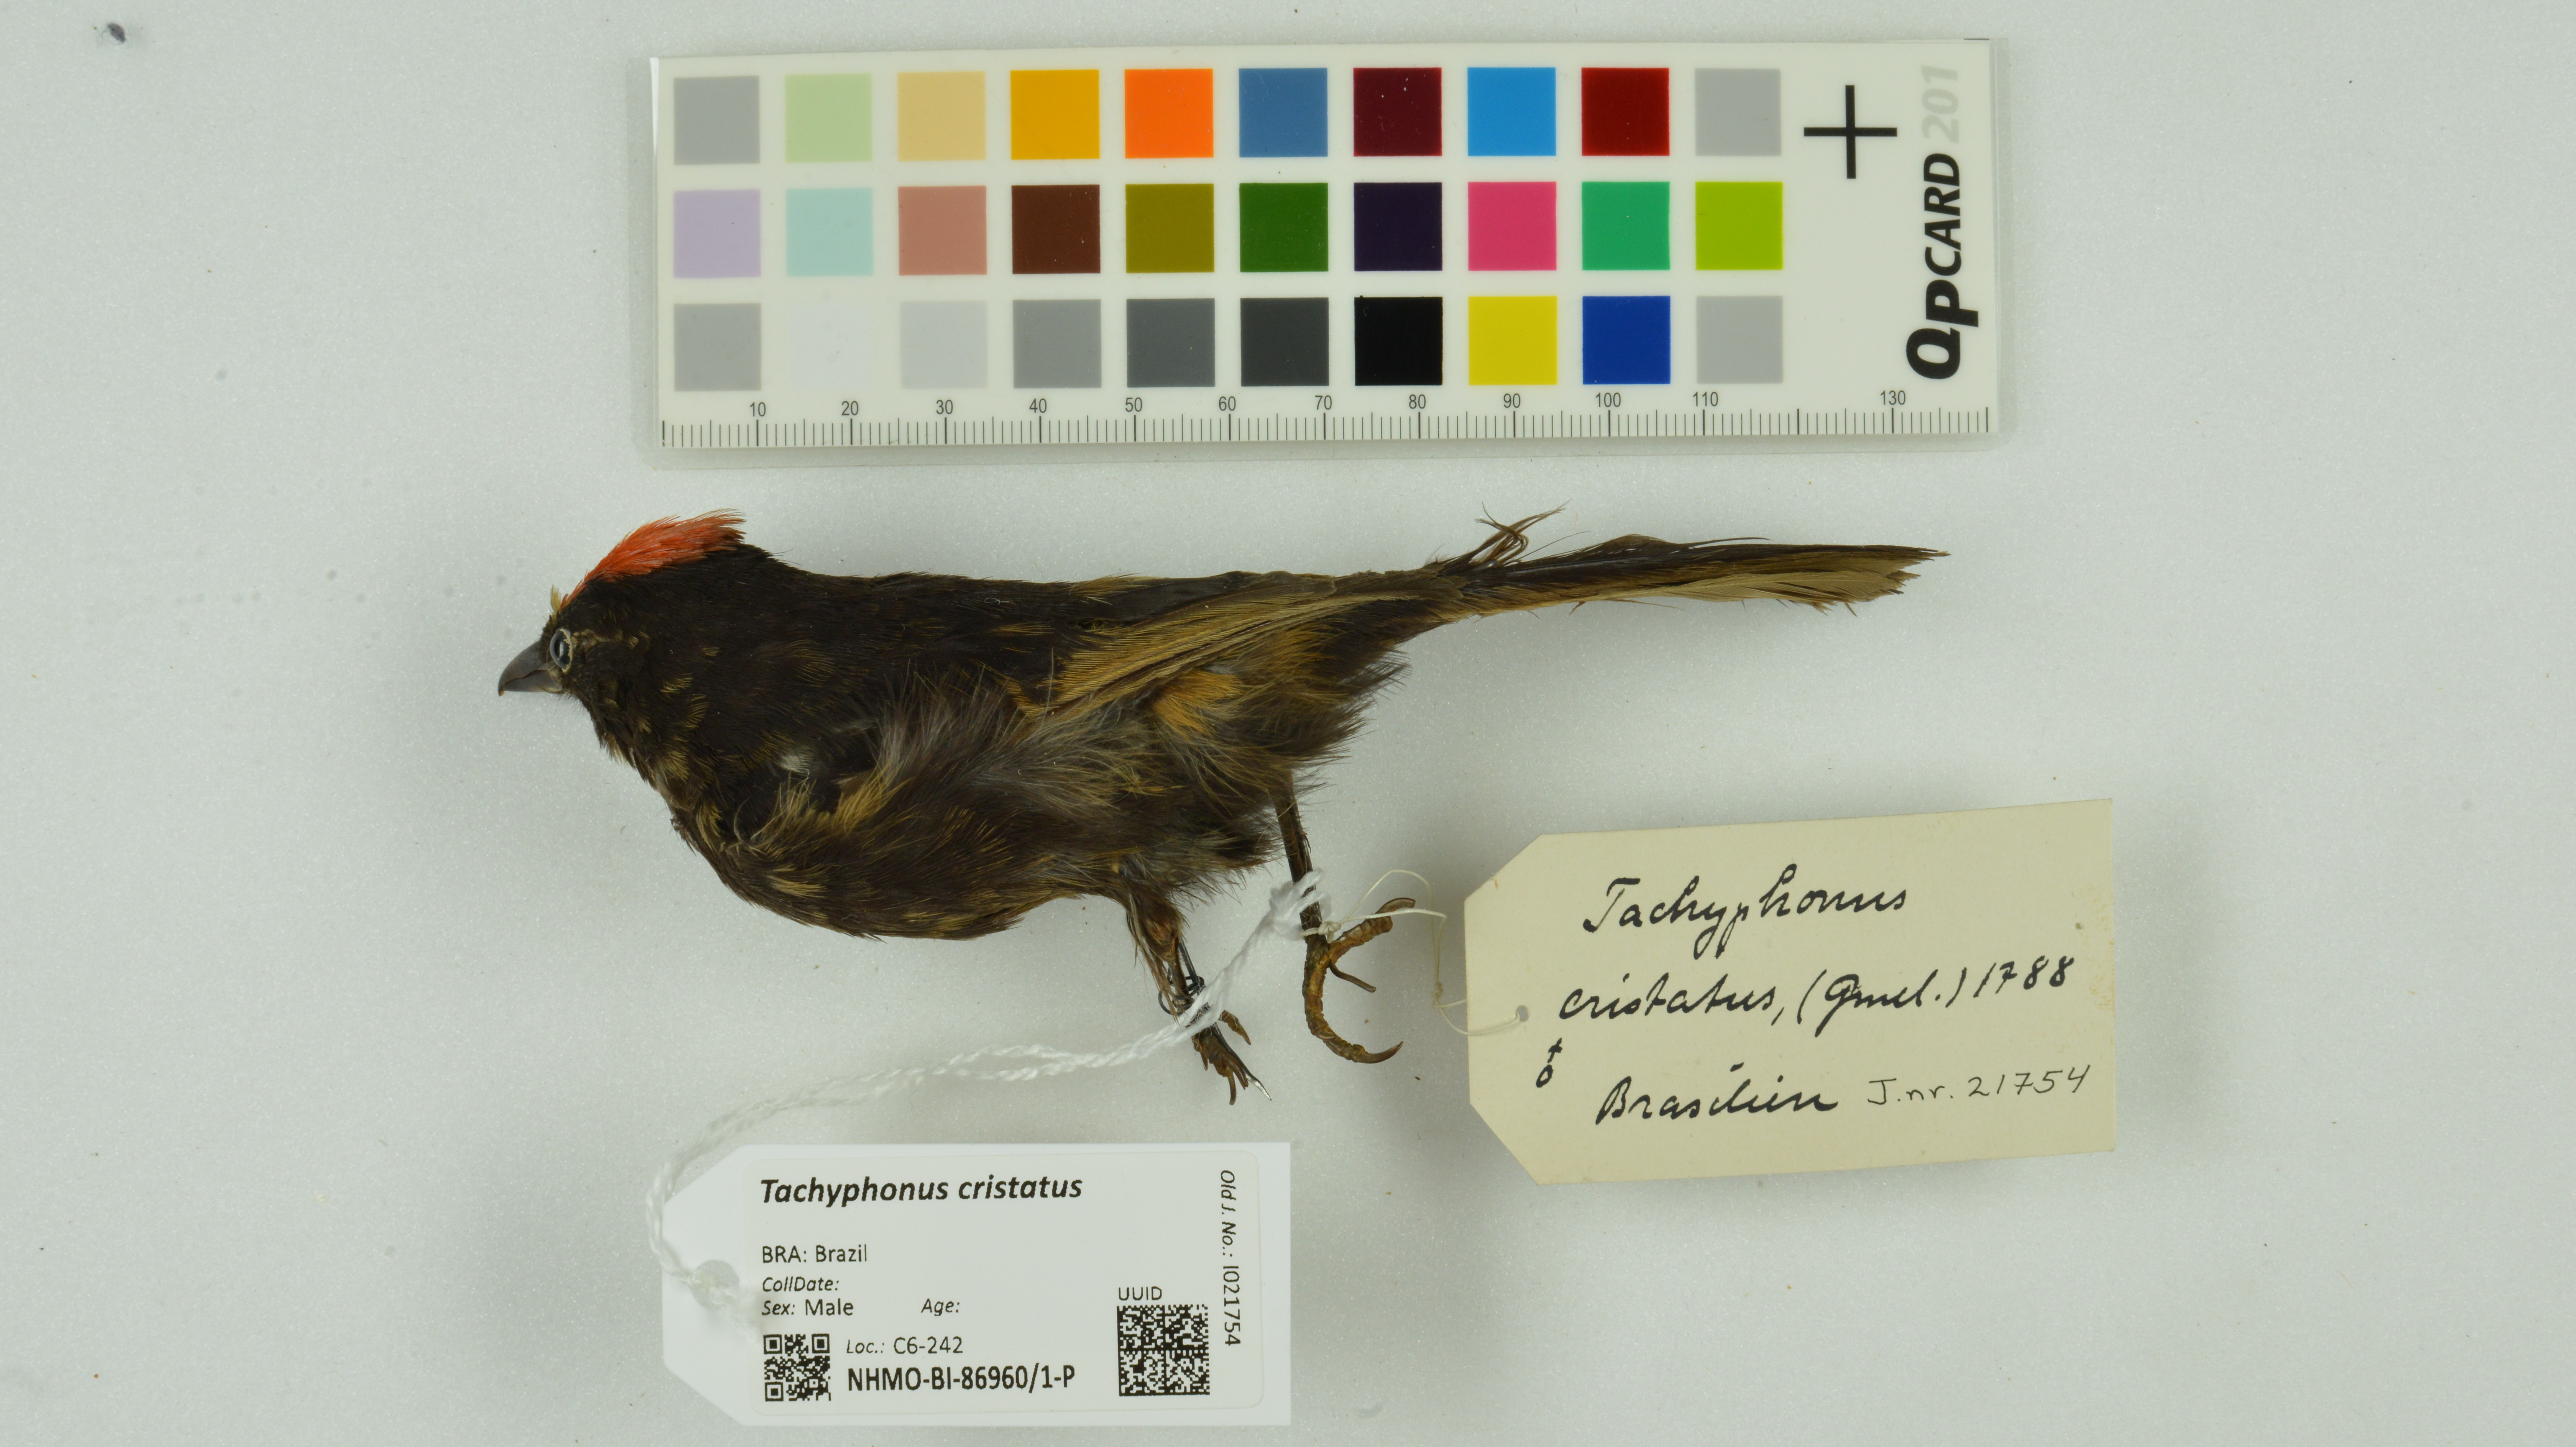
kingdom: Animalia
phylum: Chordata
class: Aves
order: Passeriformes
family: Thraupidae
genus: Loriotus
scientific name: Loriotus cristatus
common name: Flame-crested tanager
